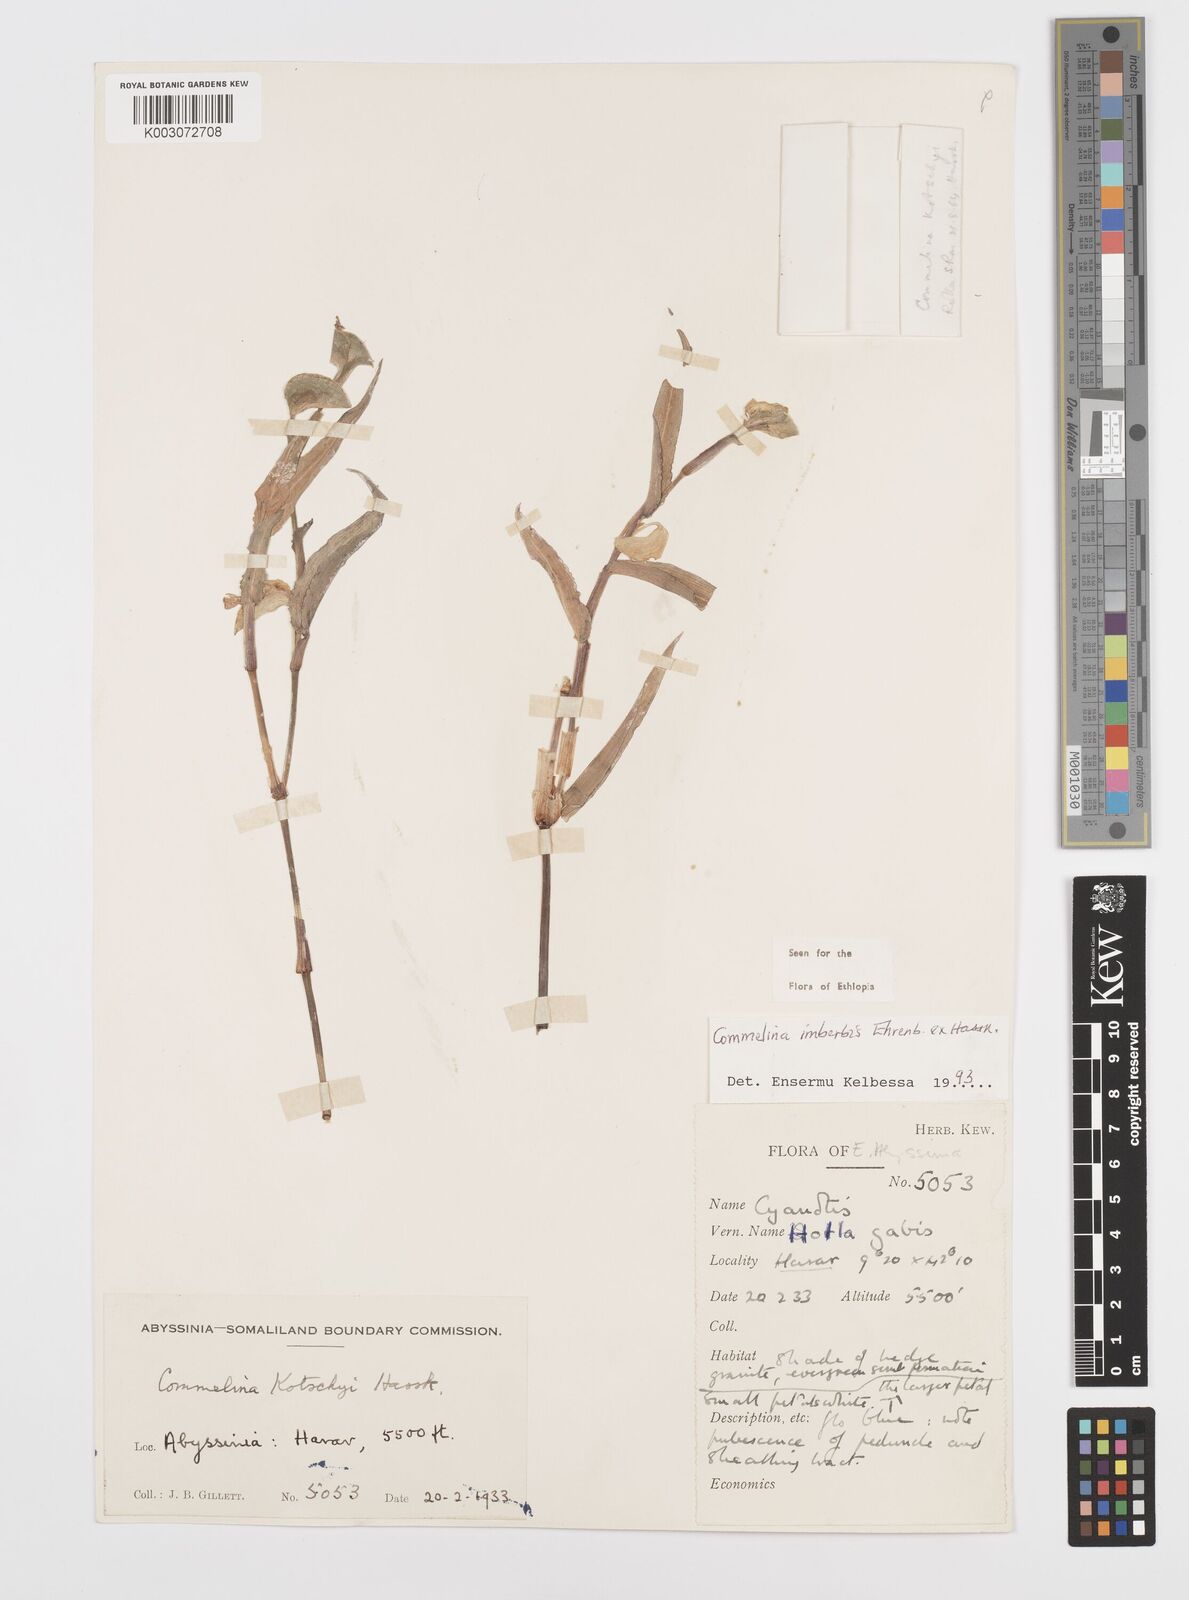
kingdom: Plantae
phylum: Tracheophyta
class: Liliopsida
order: Commelinales
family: Commelinaceae
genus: Commelina
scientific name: Commelina imberbis
